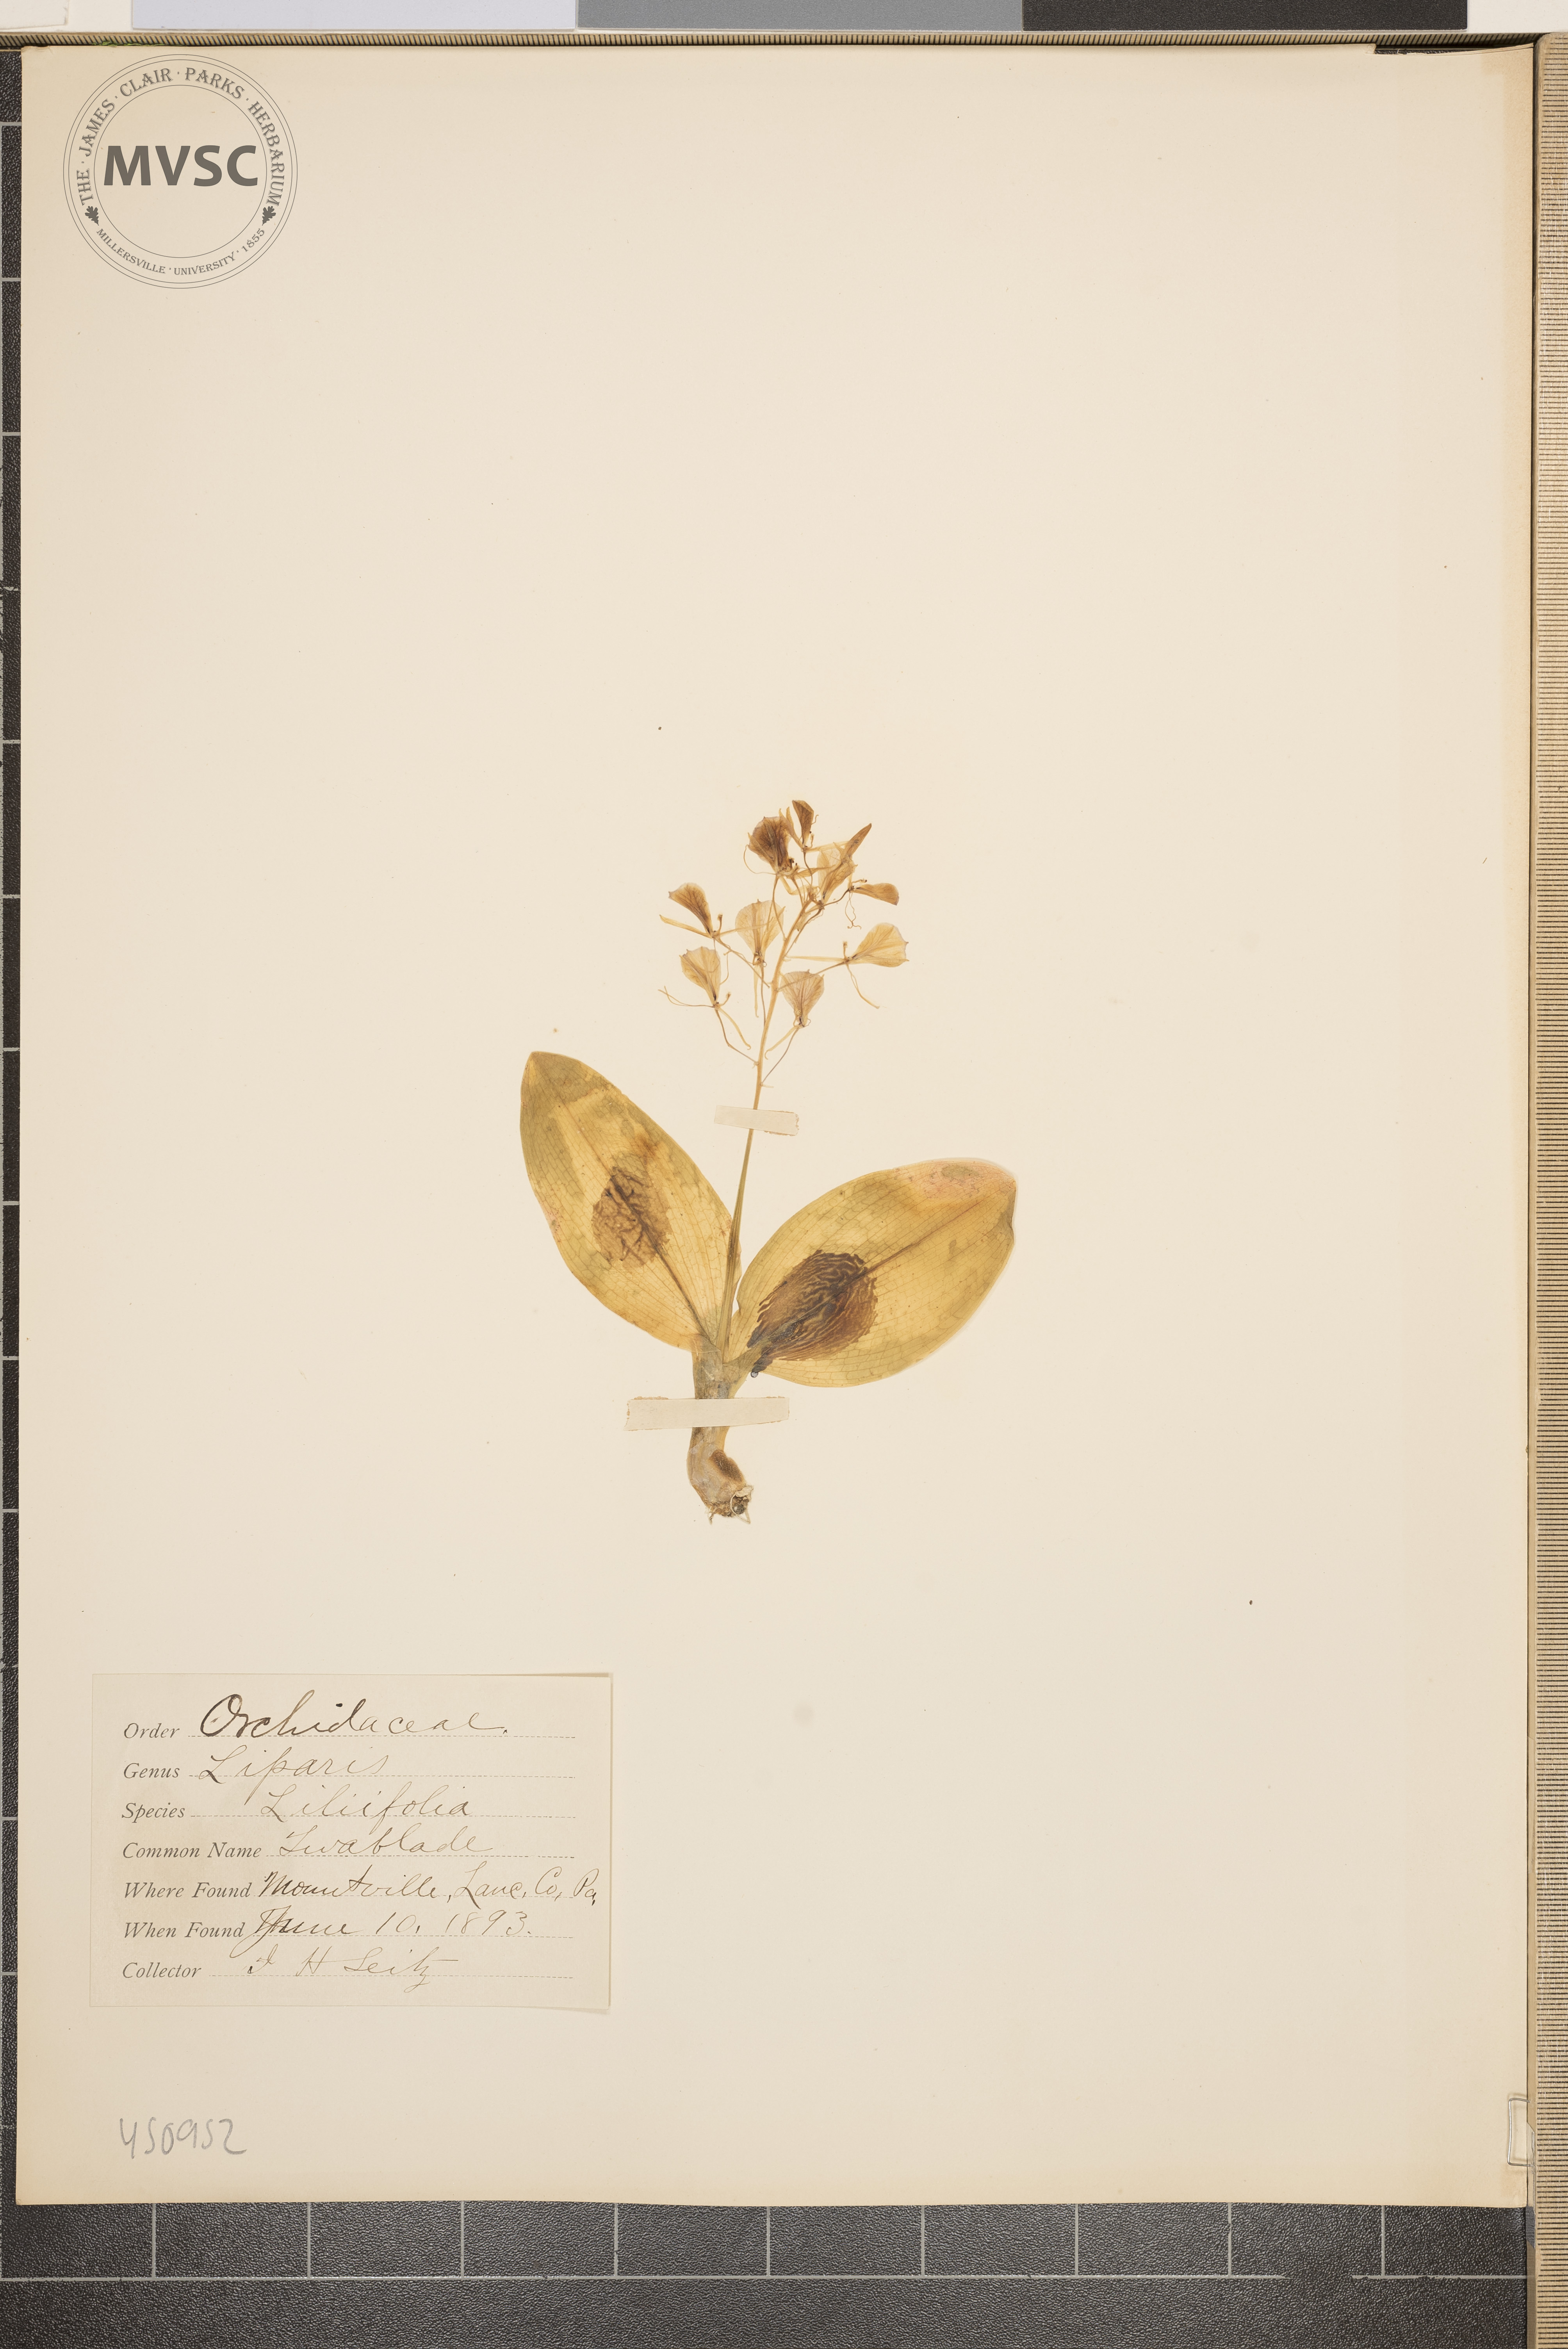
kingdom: Plantae
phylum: Tracheophyta
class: Liliopsida
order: Asparagales
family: Orchidaceae
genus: Liparis
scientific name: Liparis liliifolia
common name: Twayblade
